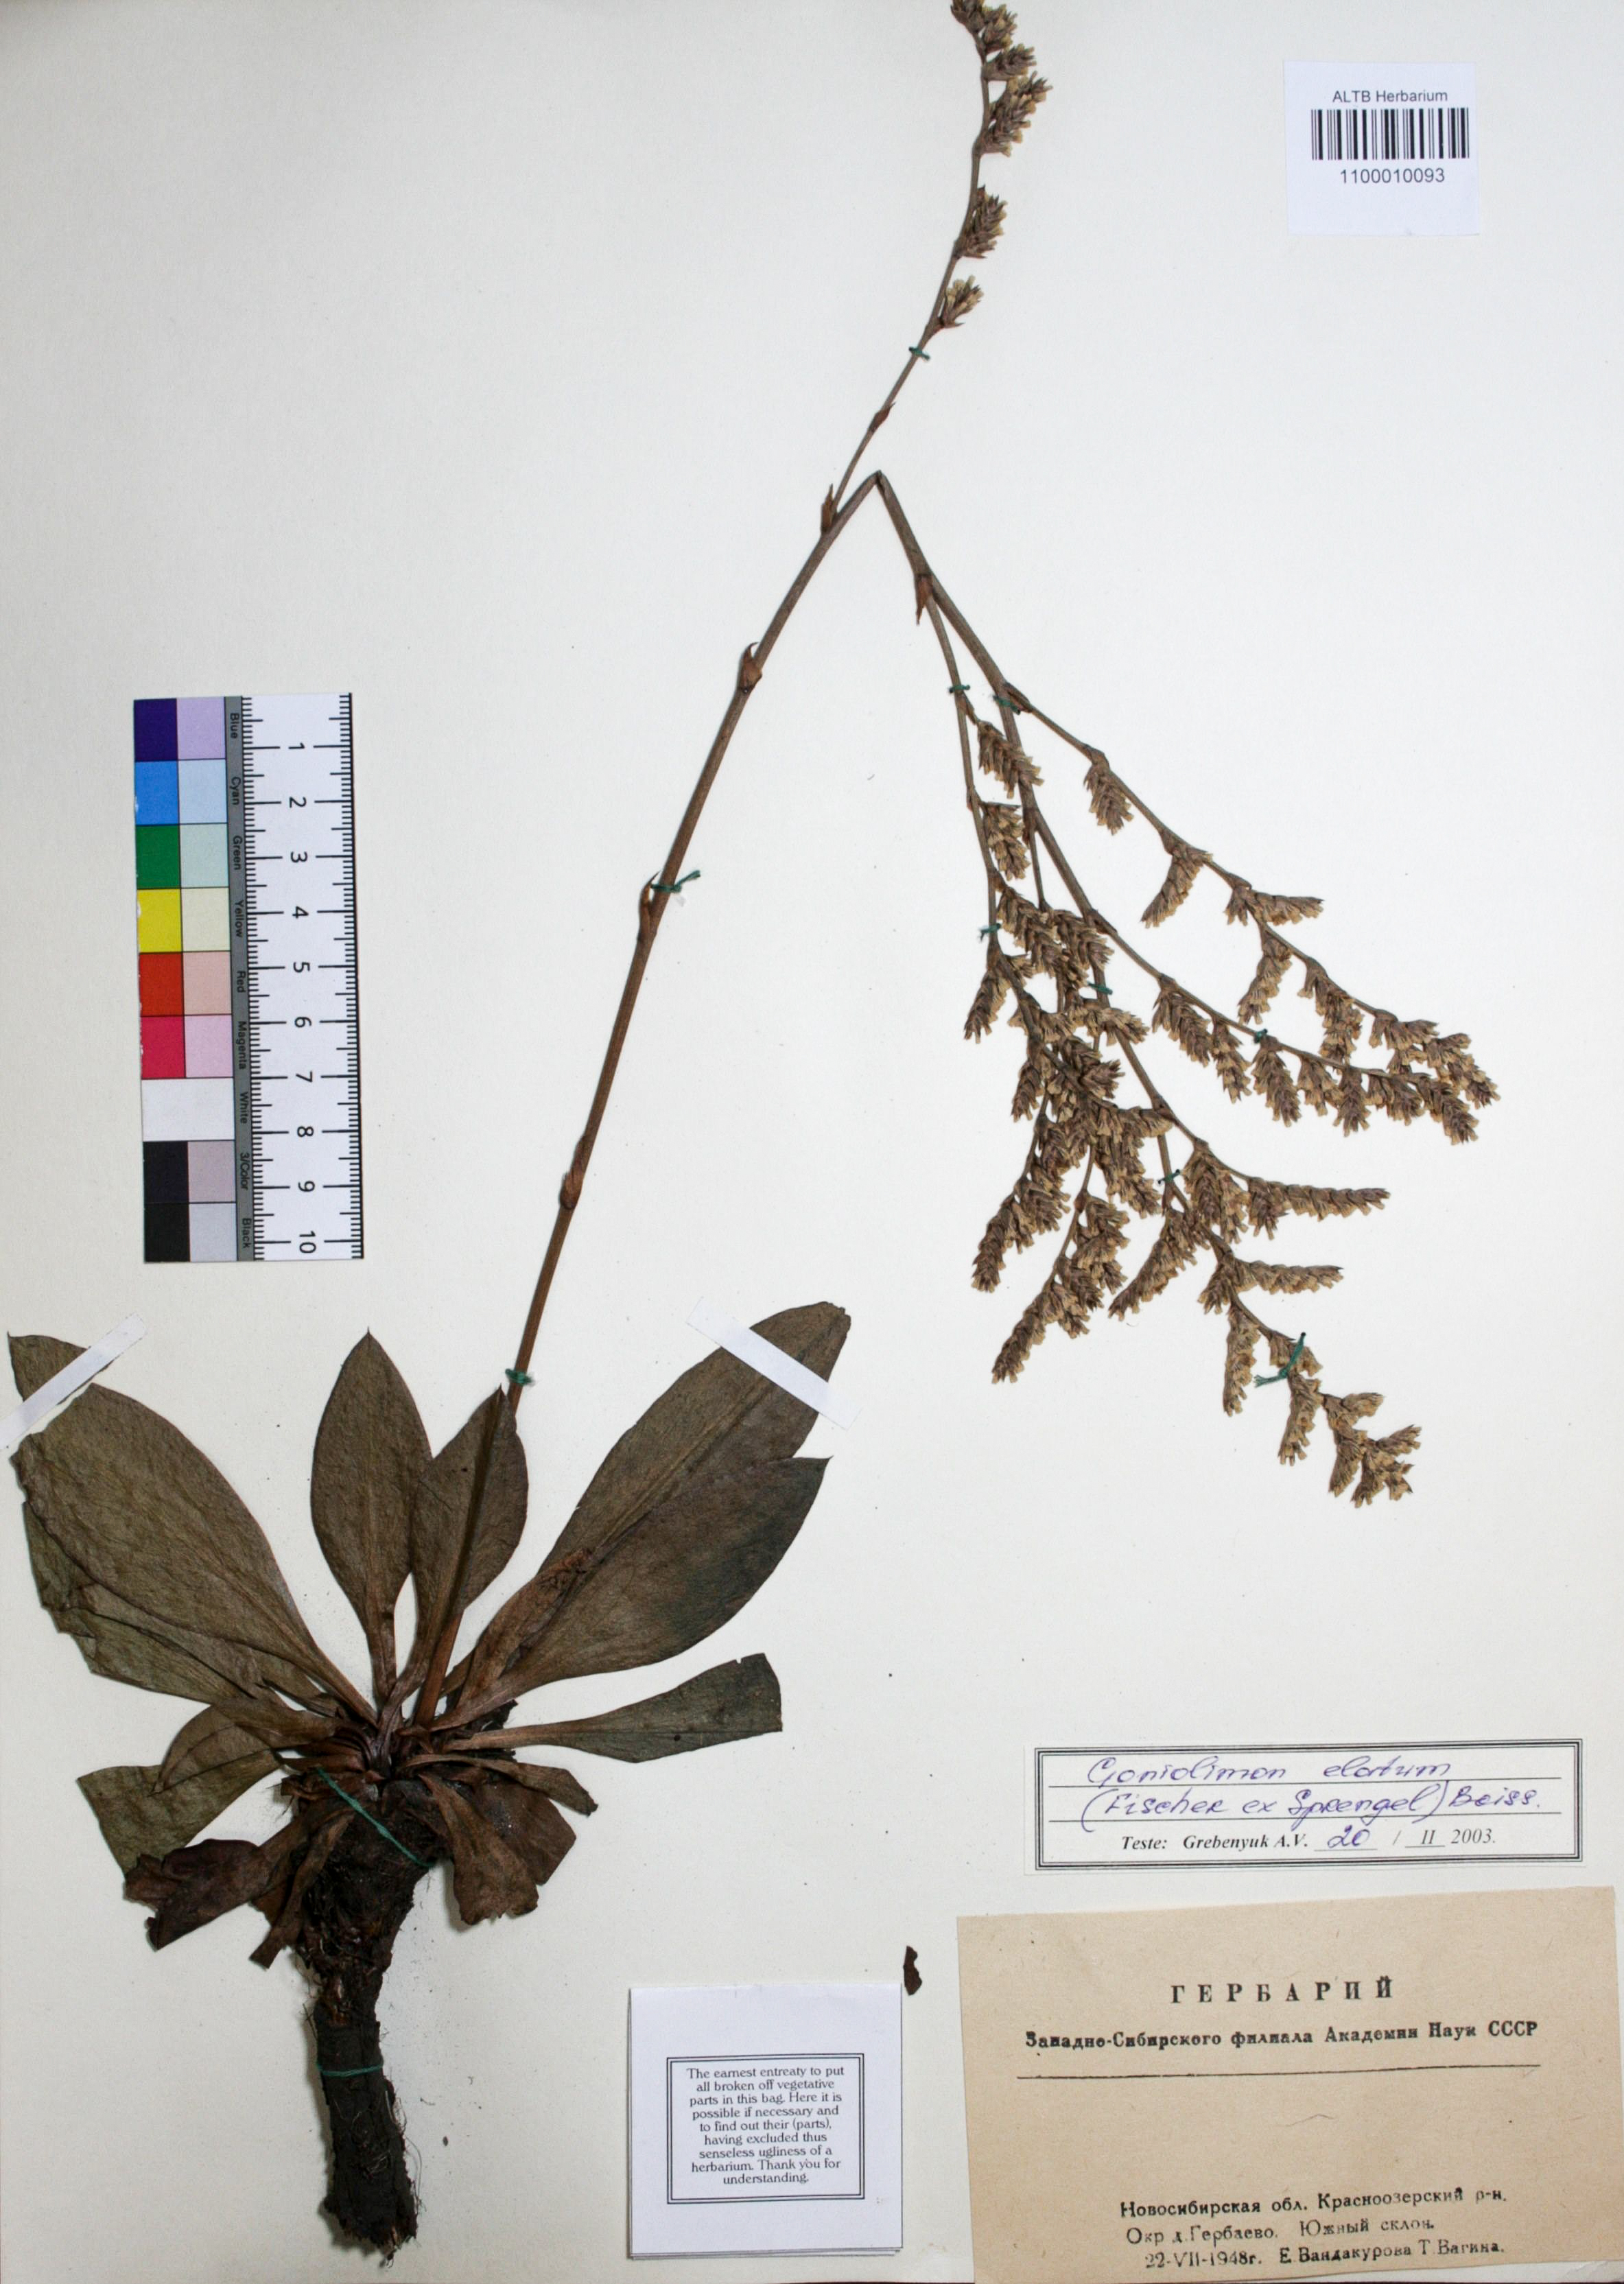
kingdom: Plantae
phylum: Tracheophyta
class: Magnoliopsida
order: Caryophyllales
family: Plumbaginaceae
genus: Goniolimon
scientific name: Goniolimon elatum
